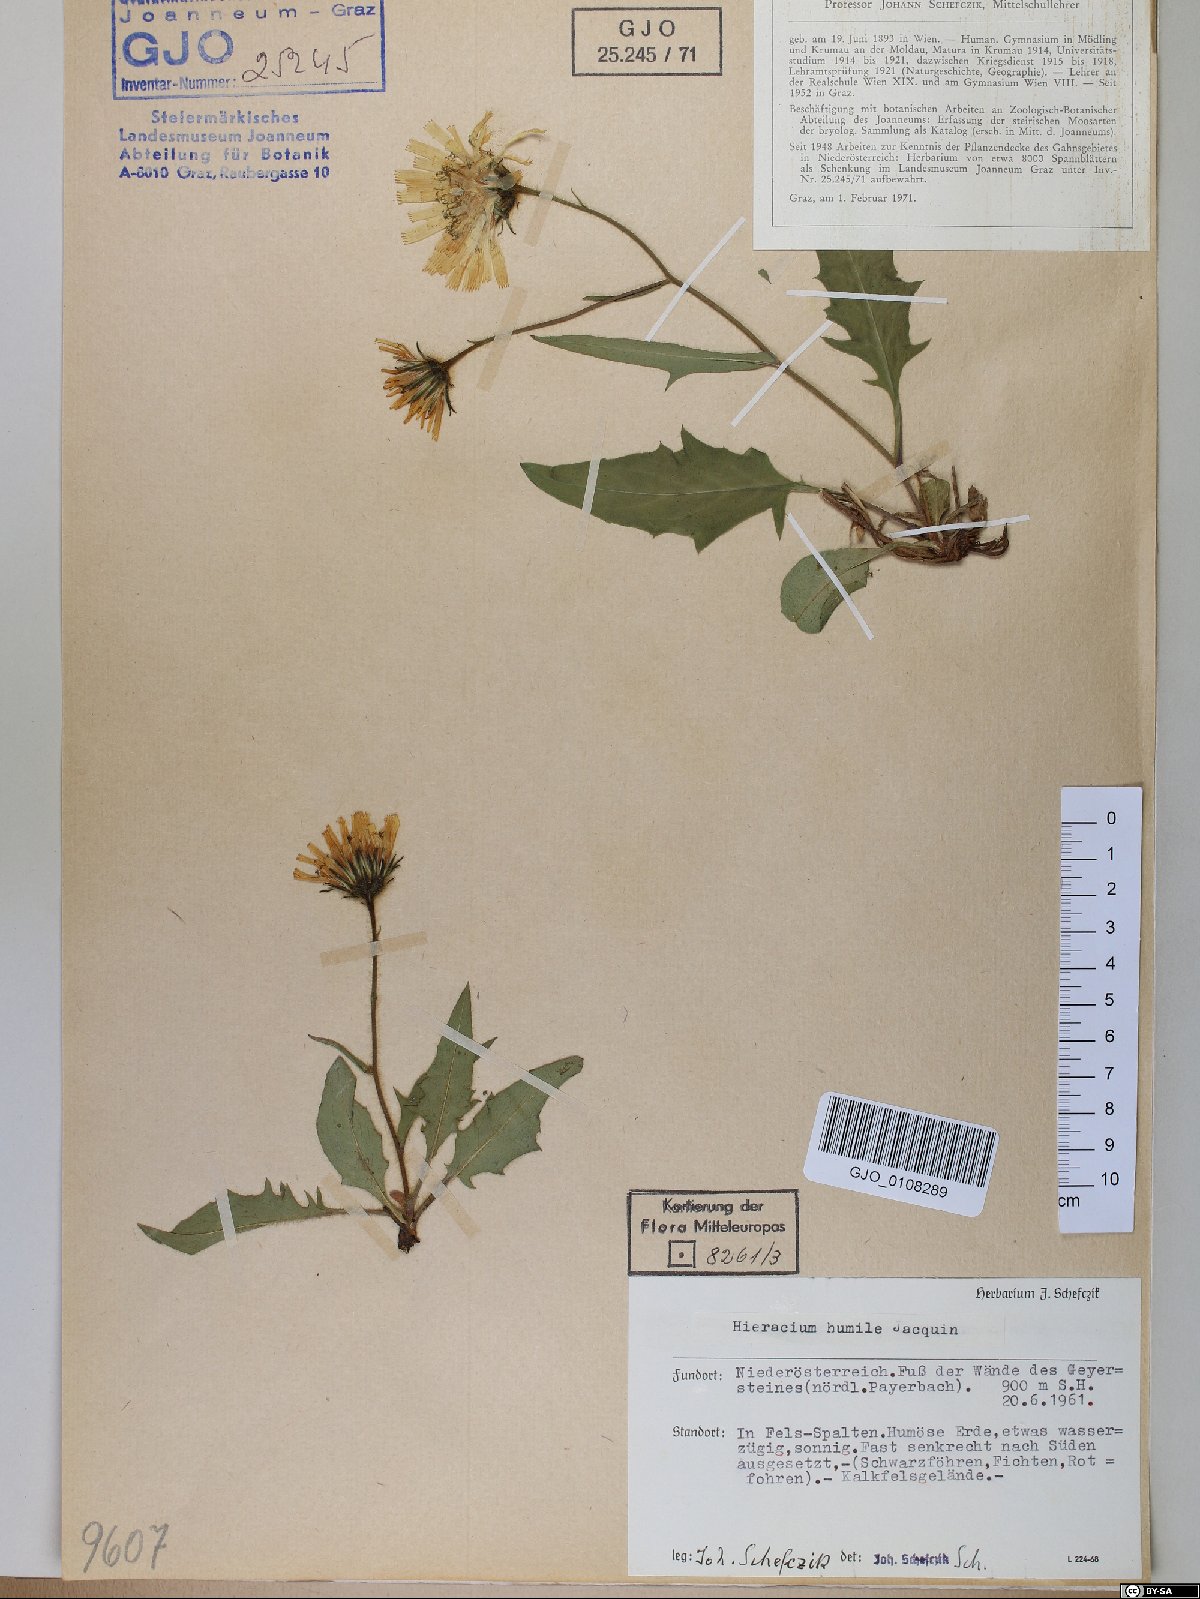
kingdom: Plantae
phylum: Tracheophyta
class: Magnoliopsida
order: Asterales
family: Asteraceae
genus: Hieracium
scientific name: Hieracium humile
